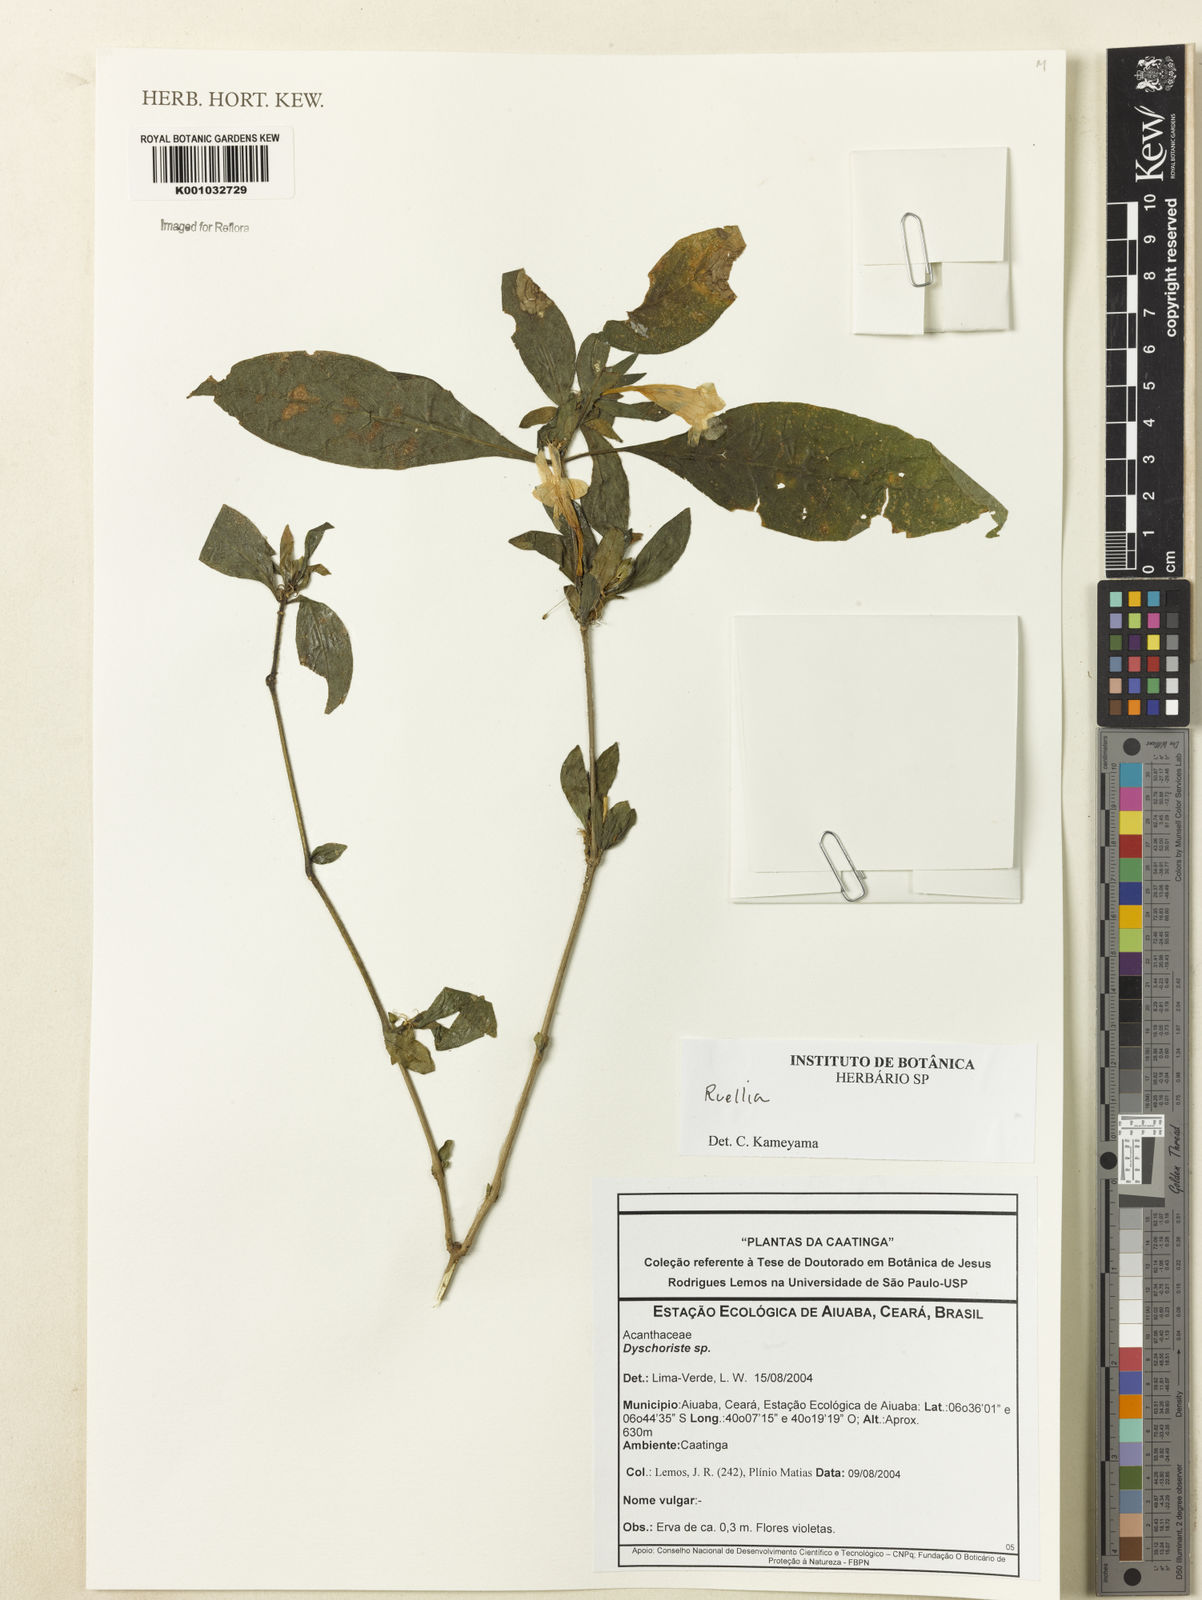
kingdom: Plantae
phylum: Tracheophyta
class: Magnoliopsida
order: Lamiales
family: Acanthaceae
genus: Ruellia
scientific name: Ruellia
